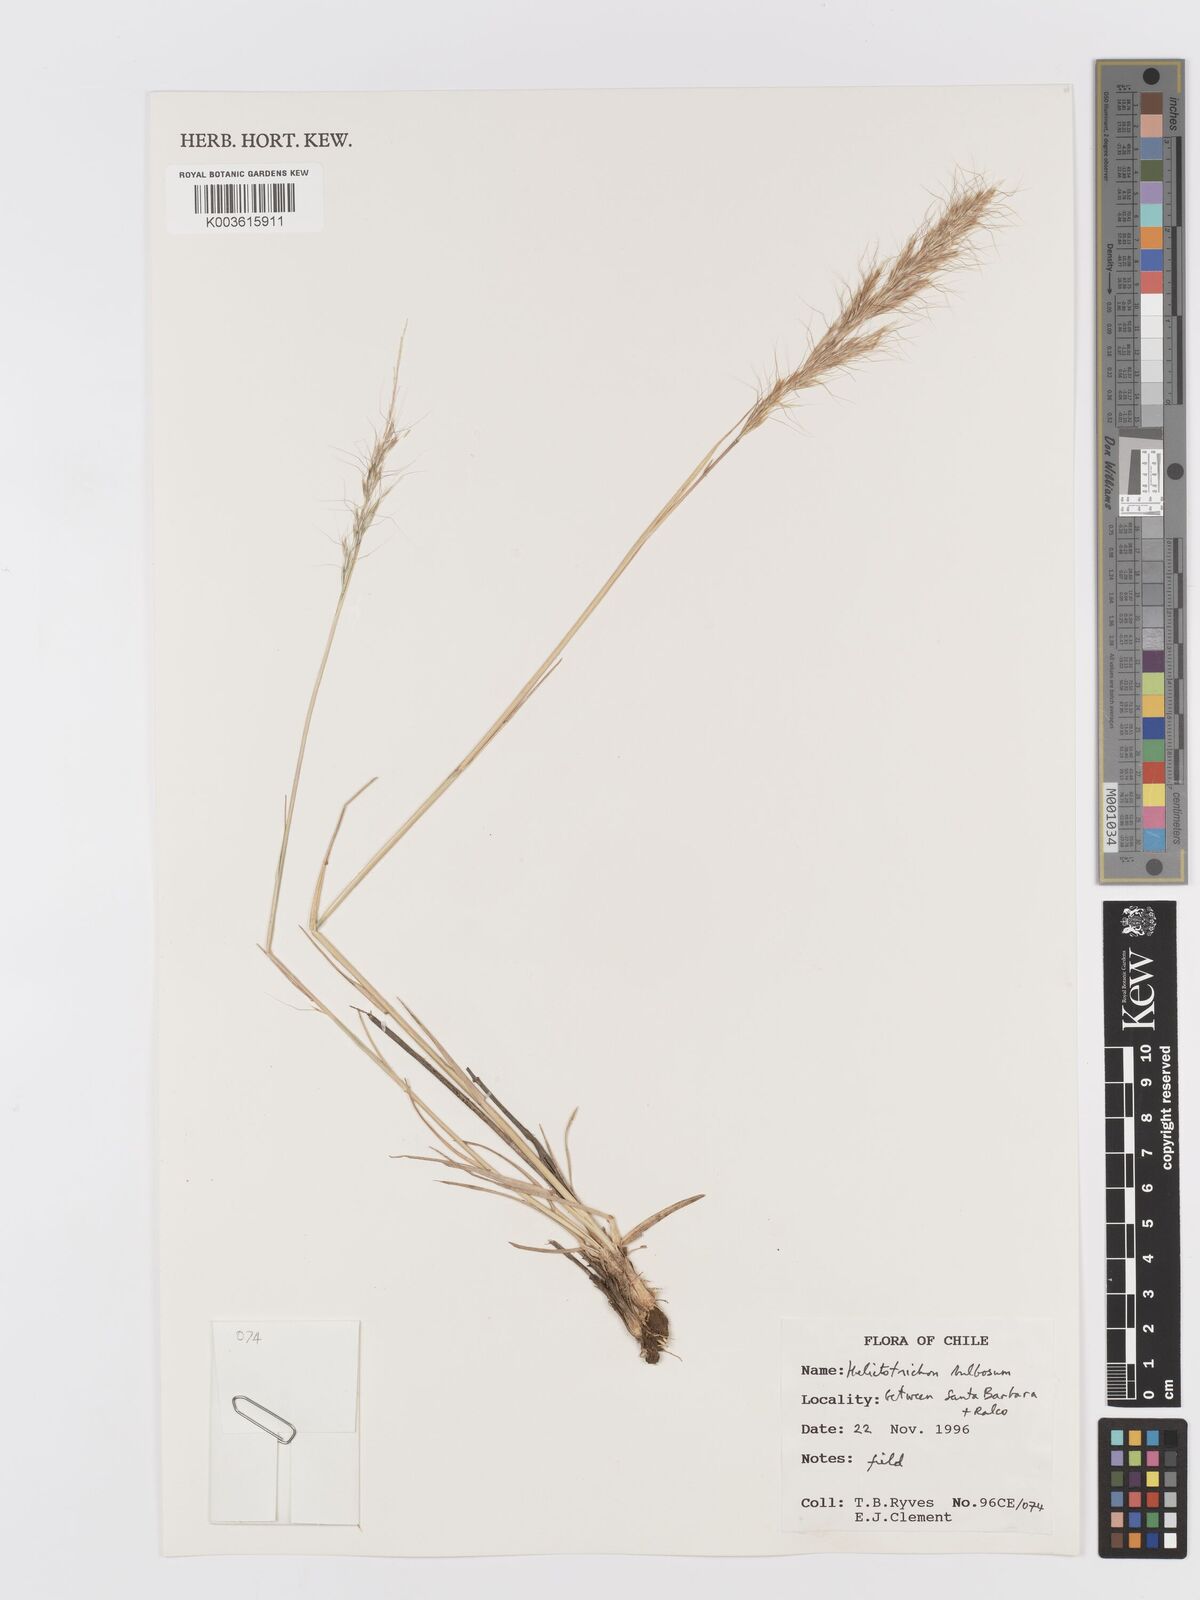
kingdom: Plantae
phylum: Tracheophyta
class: Liliopsida
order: Poales
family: Poaceae
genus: Trisetum
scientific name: Trisetum bulbosum
